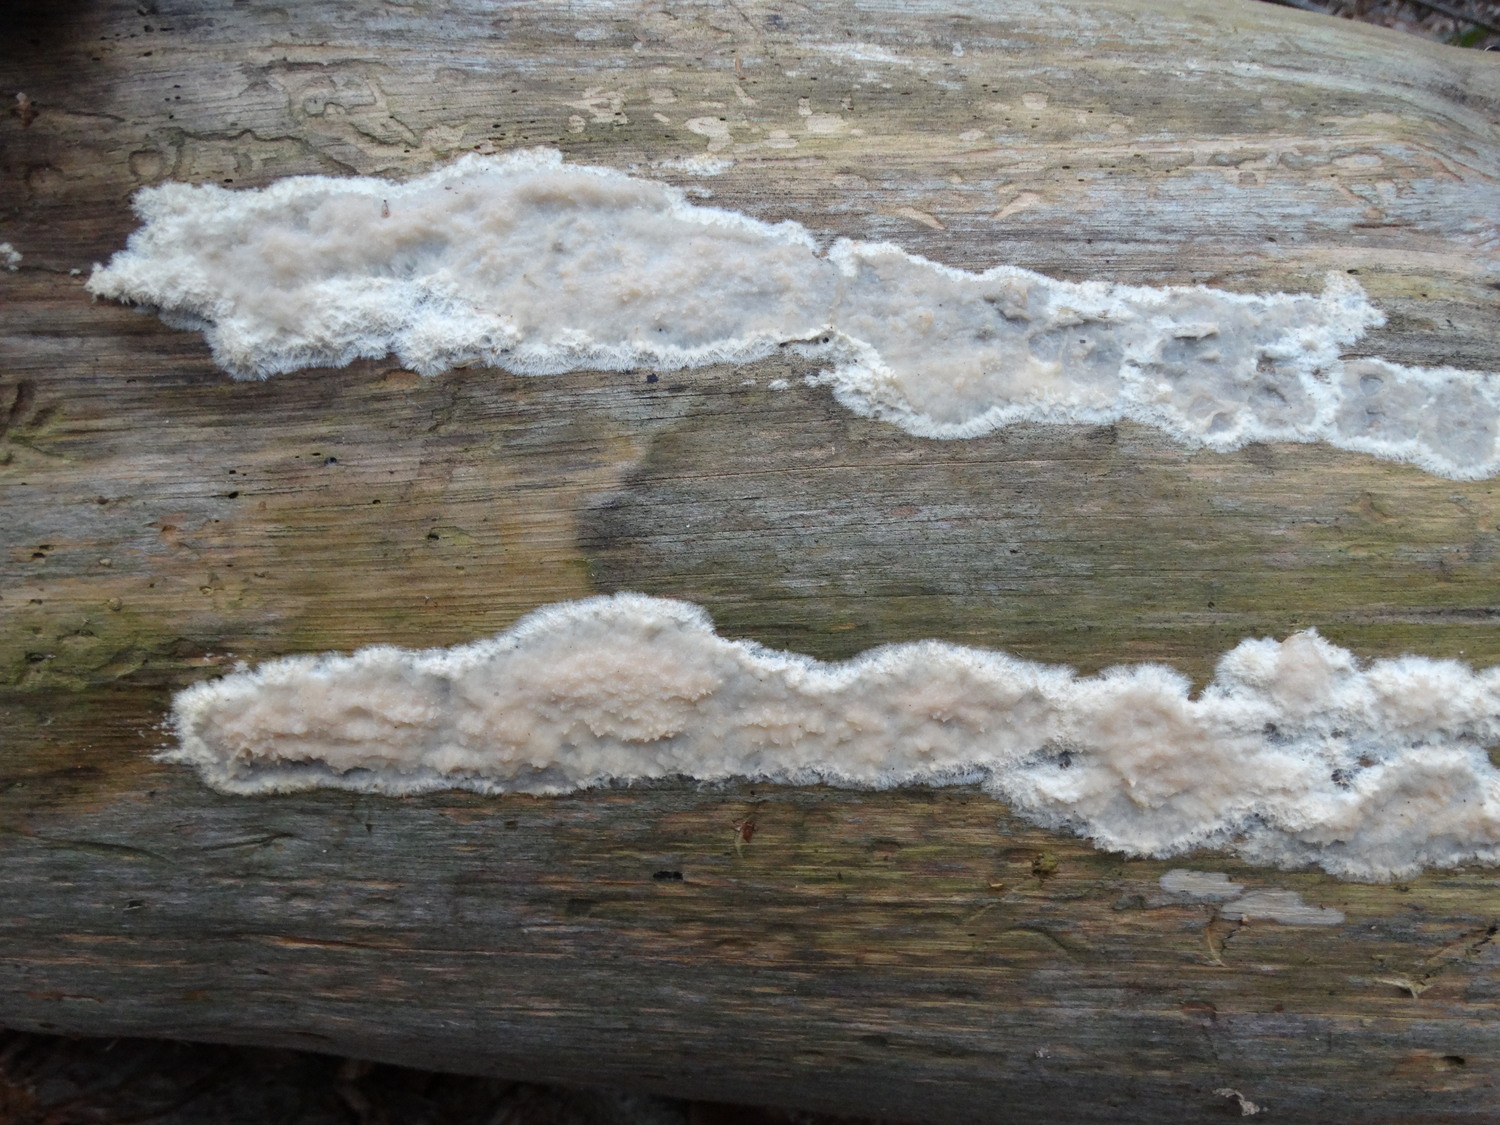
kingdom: Fungi
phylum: Basidiomycota
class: Agaricomycetes
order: Polyporales
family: Phanerochaetaceae
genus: Phlebiopsis
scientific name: Phlebiopsis gigantea
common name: kæmpebarksvamp
